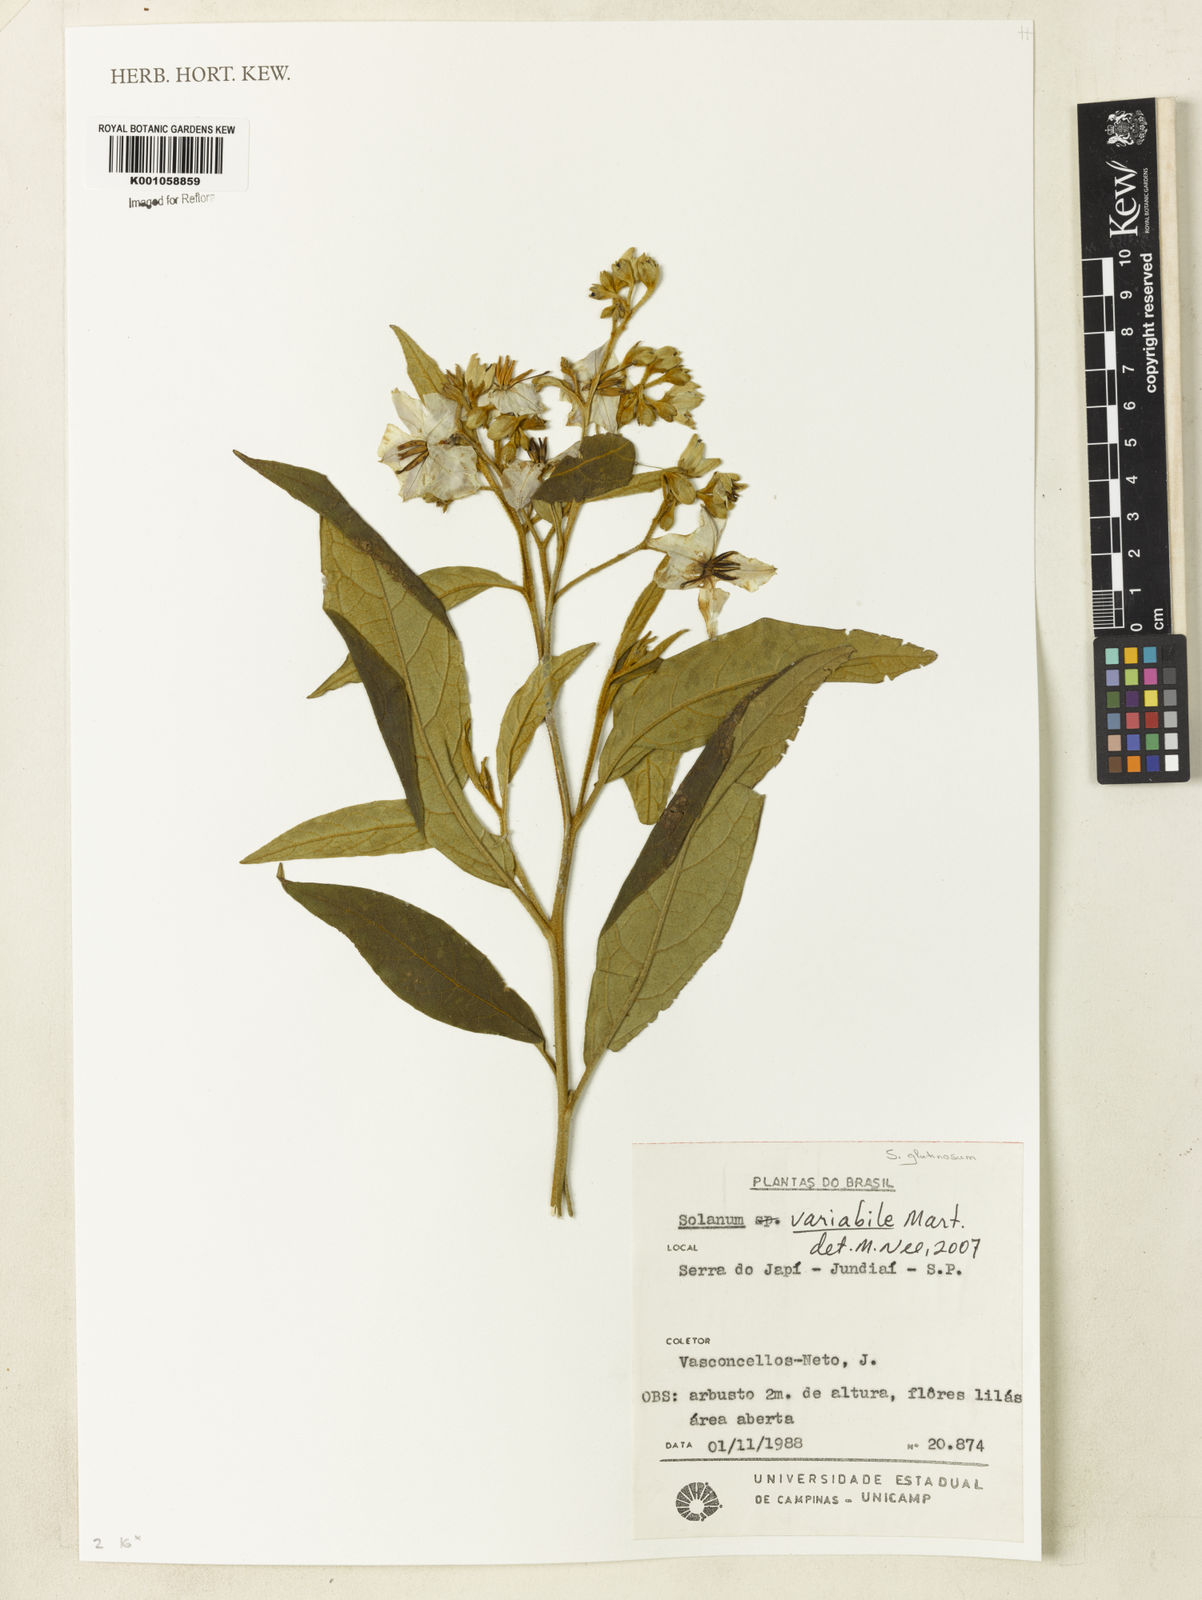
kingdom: Plantae
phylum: Tracheophyta
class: Magnoliopsida
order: Solanales
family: Solanaceae
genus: Solanum
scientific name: Solanum variabile
